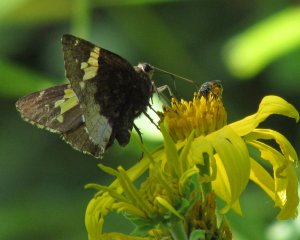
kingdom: Animalia
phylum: Arthropoda
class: Insecta
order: Lepidoptera
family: Hesperiidae
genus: Achalarus
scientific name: Achalarus lyciades
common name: Hoary Edge
